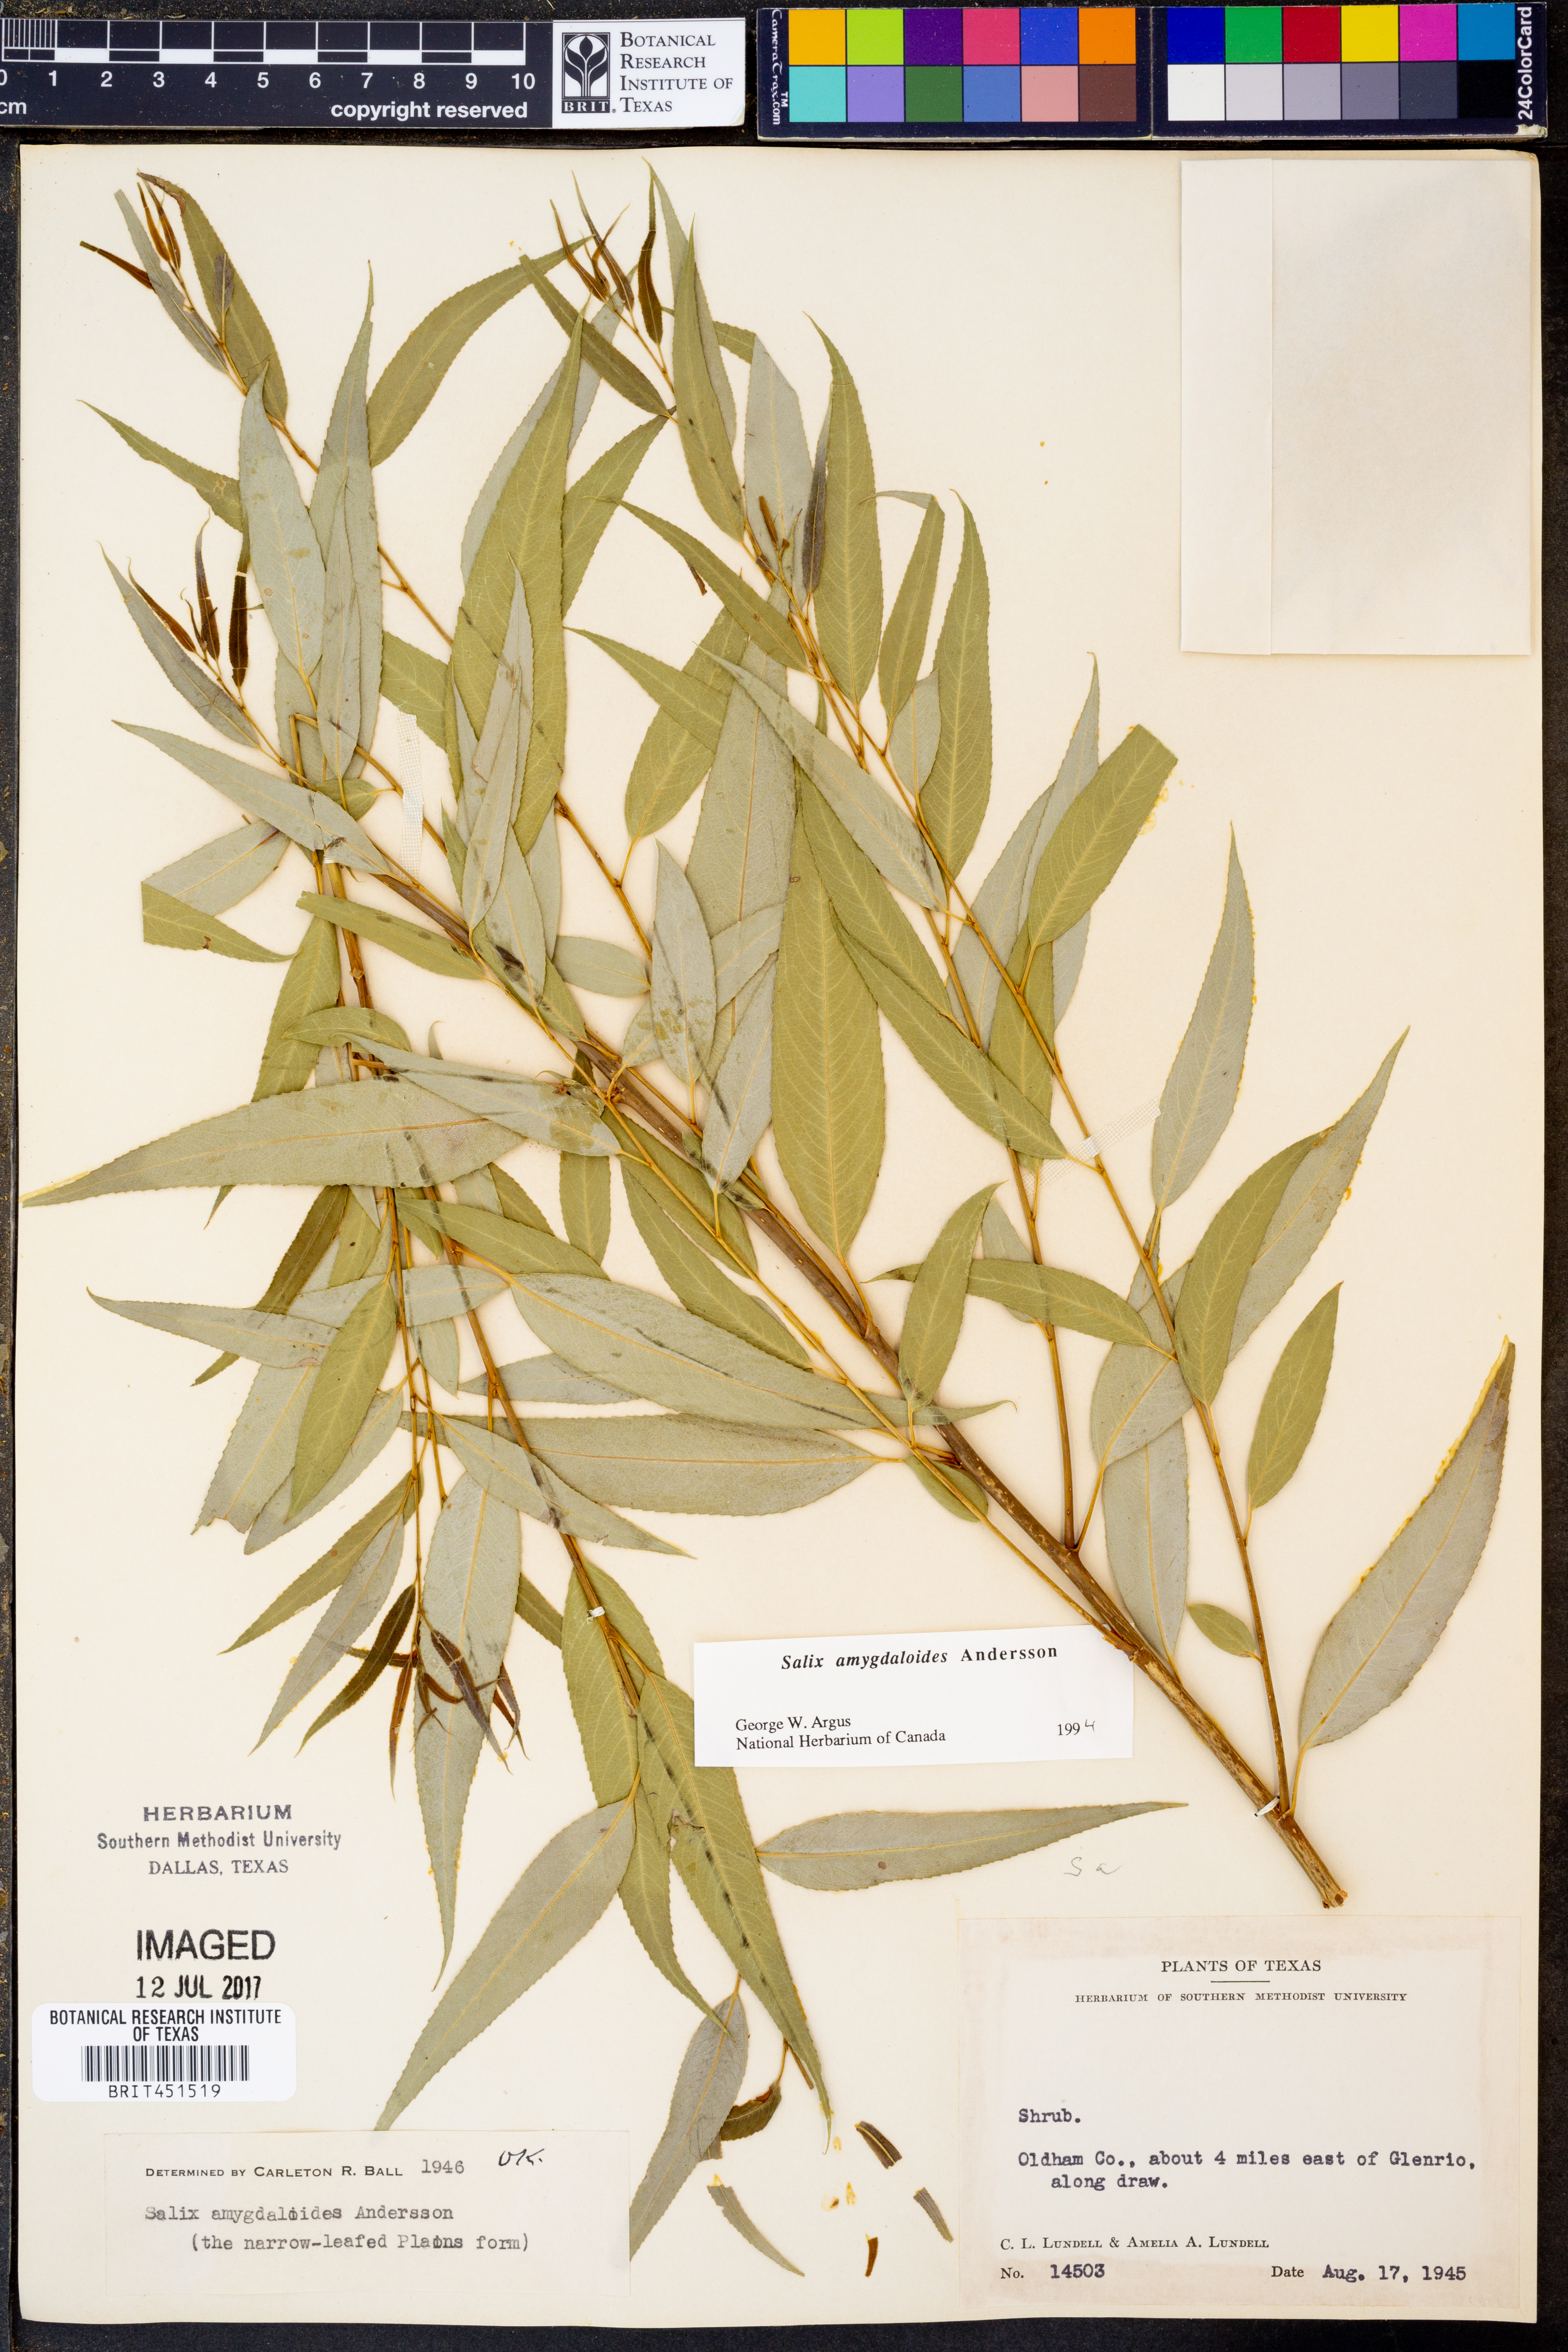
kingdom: Plantae
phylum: Tracheophyta
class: Magnoliopsida
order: Malpighiales
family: Salicaceae
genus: Salix
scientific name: Salix amygdaloides
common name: Peach leaf willow
